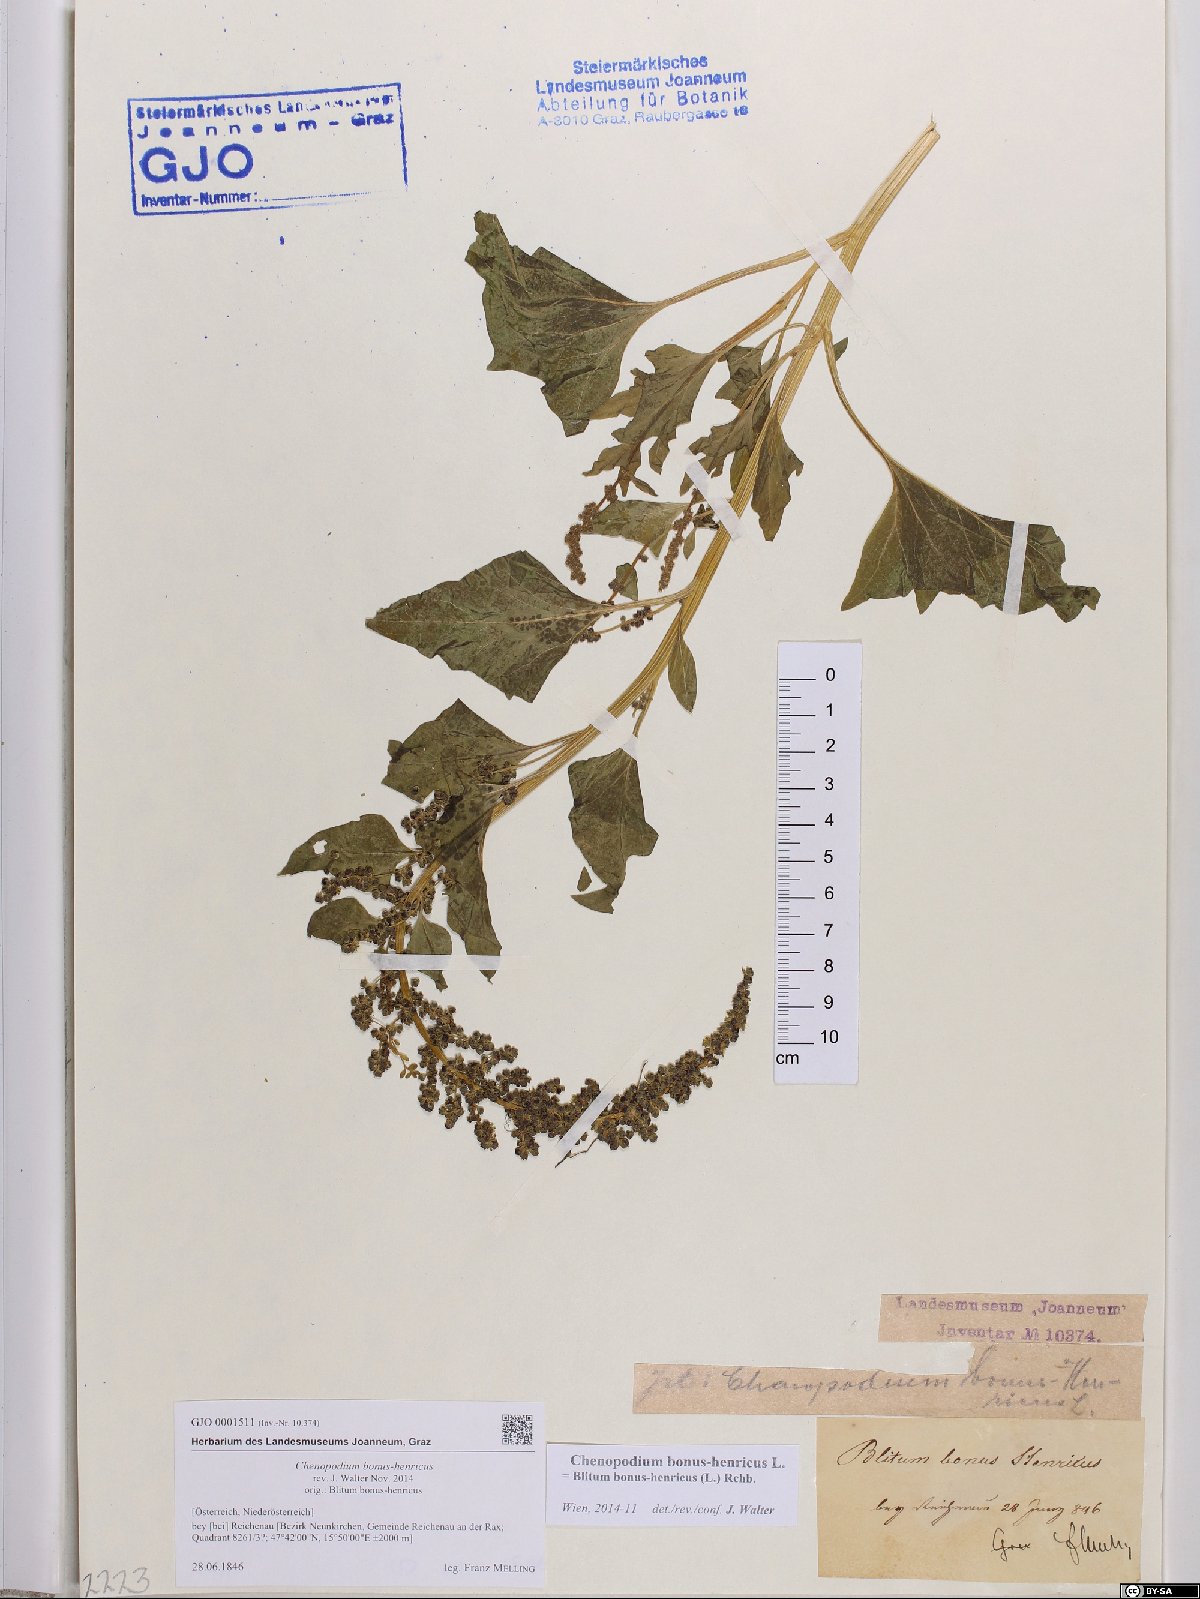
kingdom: Plantae
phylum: Tracheophyta
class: Magnoliopsida
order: Caryophyllales
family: Amaranthaceae
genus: Blitum
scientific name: Blitum bonus-henricus
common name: Good king henry
